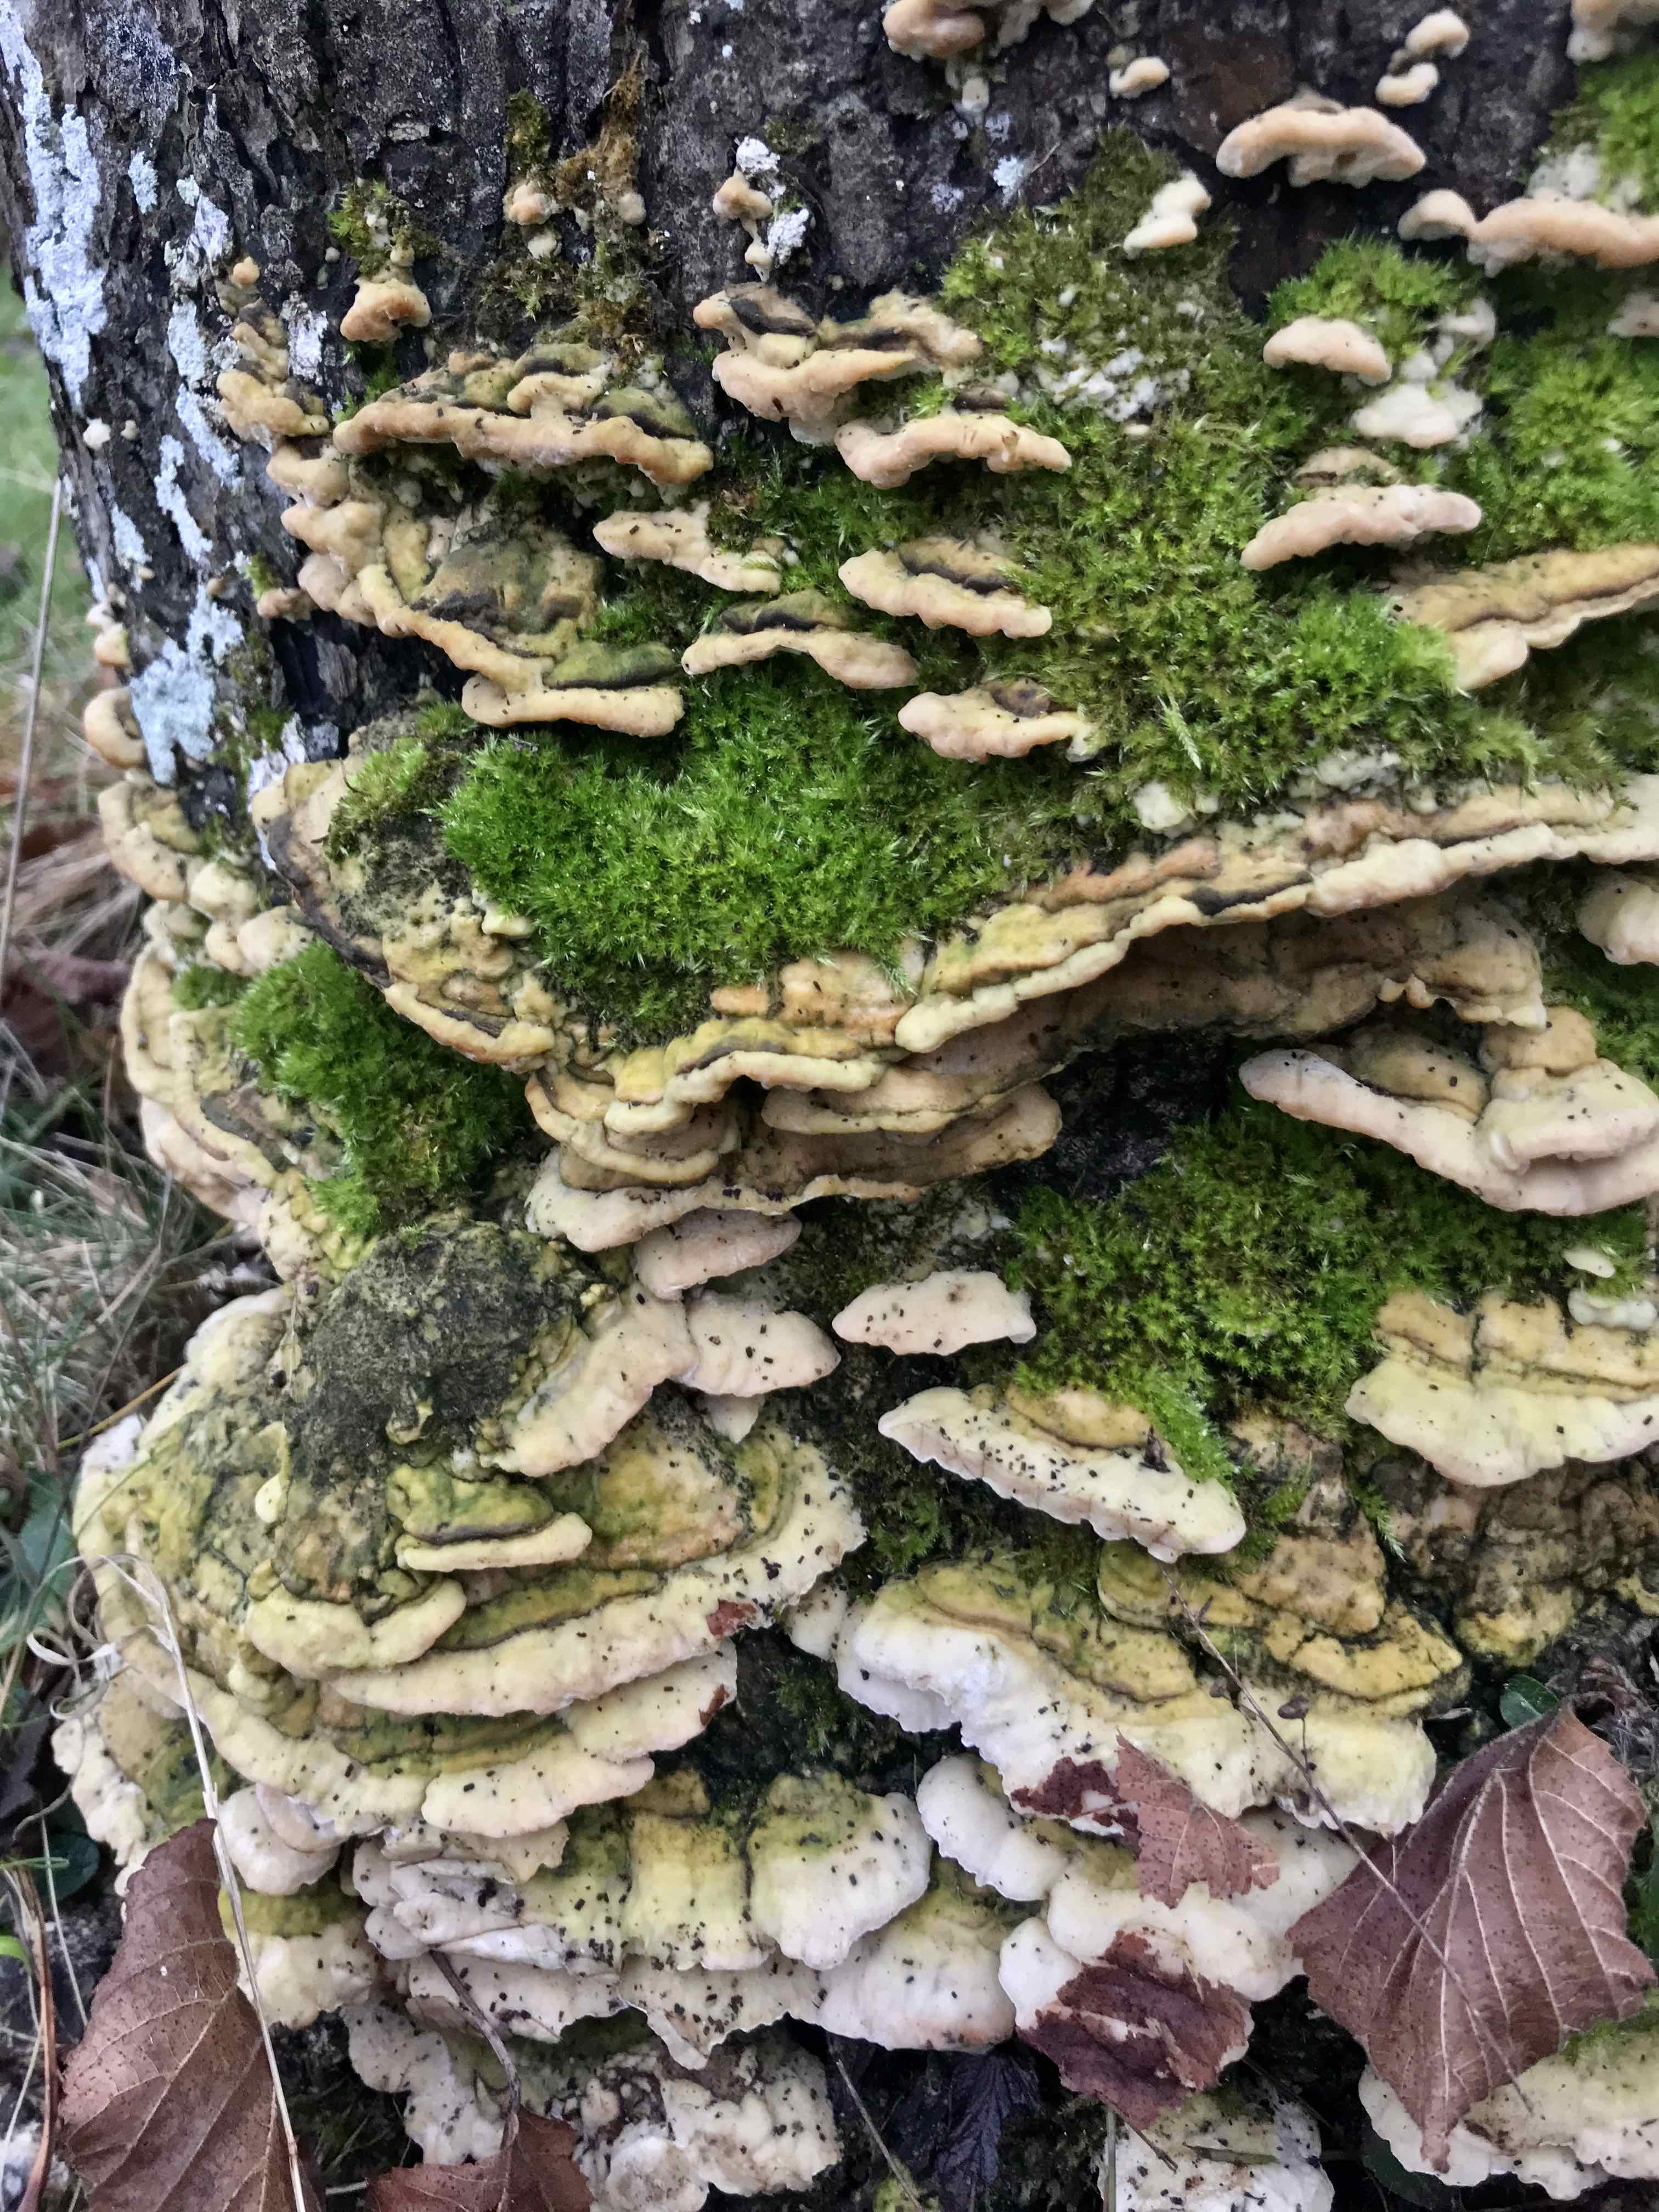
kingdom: Fungi
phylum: Basidiomycota
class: Agaricomycetes
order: Hymenochaetales
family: Oxyporaceae
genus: Oxyporus
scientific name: Oxyporus populinus
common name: sammenvokset trylleporesvamp
